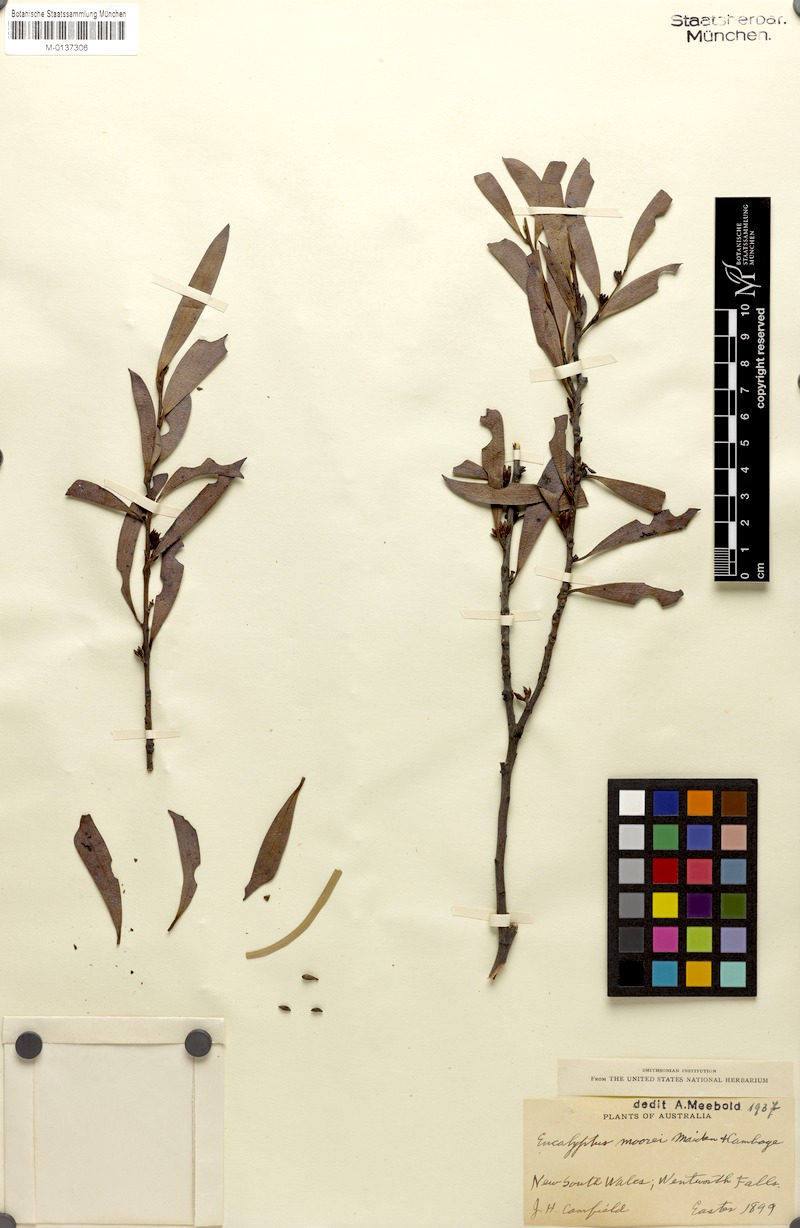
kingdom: Plantae
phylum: Tracheophyta
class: Magnoliopsida
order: Myrtales
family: Myrtaceae
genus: Eucalyptus
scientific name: Eucalyptus moorei
